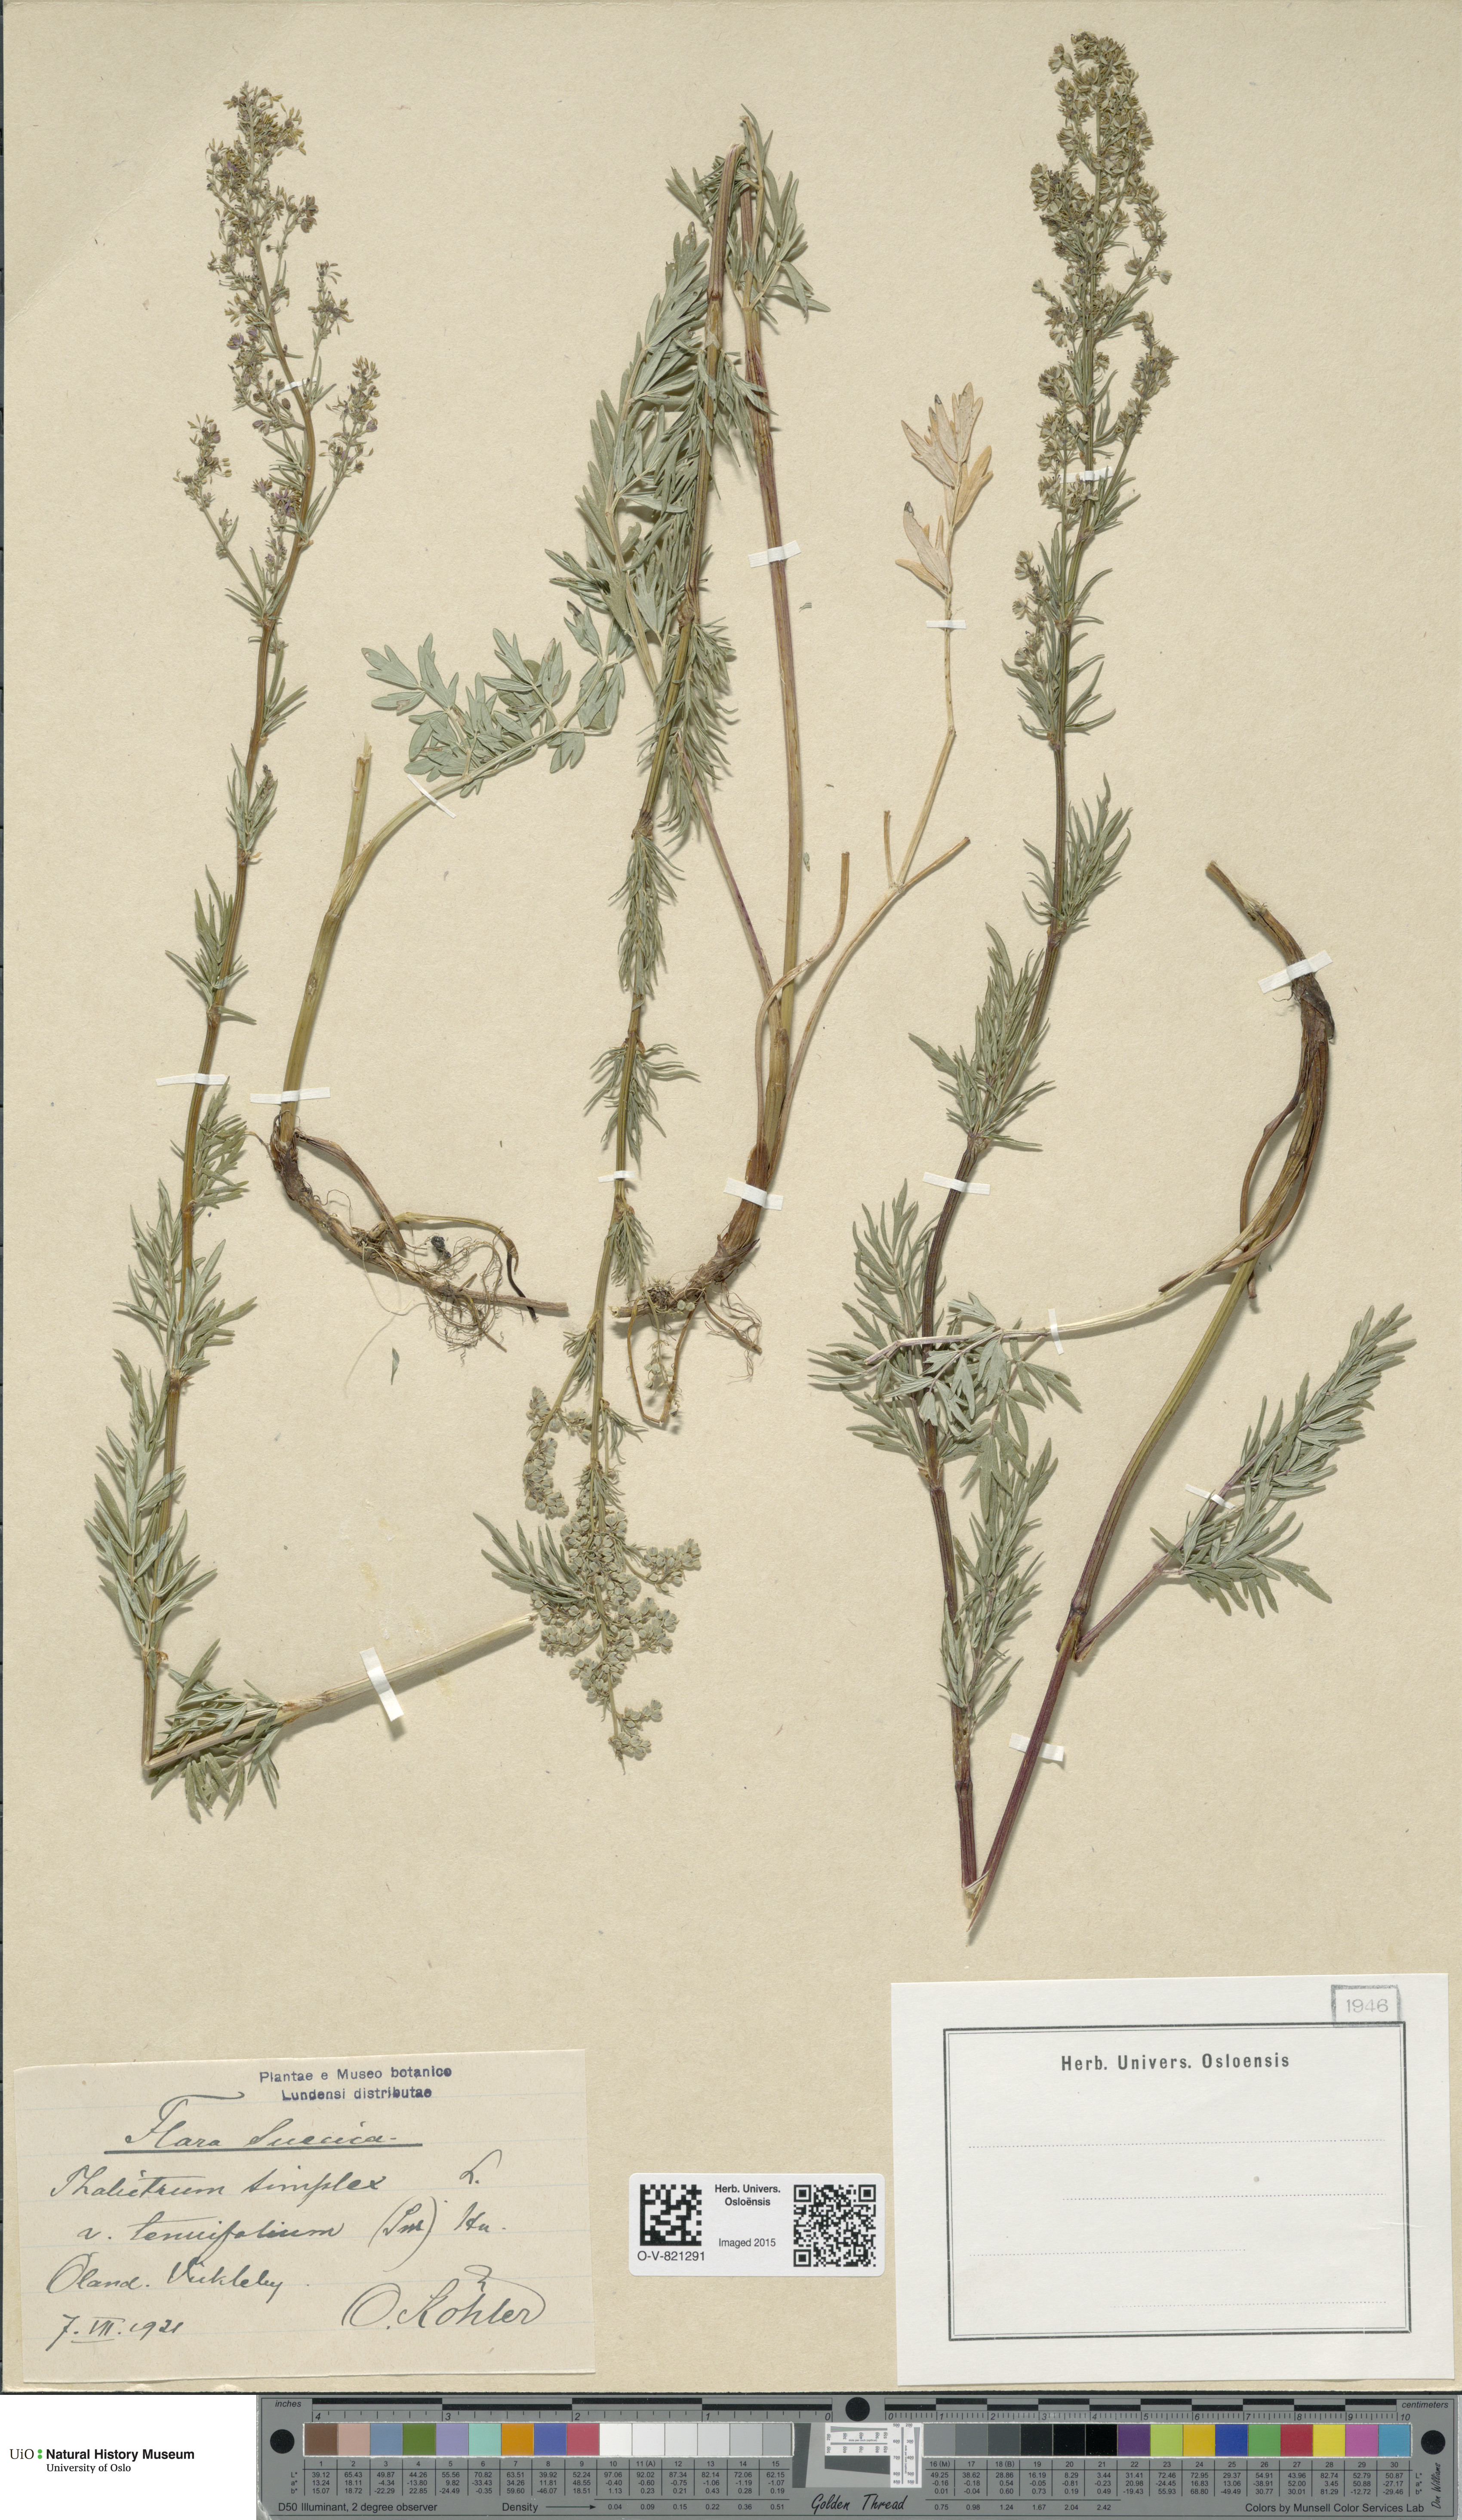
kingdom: Plantae
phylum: Tracheophyta
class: Magnoliopsida
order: Ranunculales
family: Ranunculaceae
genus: Thalictrum
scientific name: Thalictrum simplex
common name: Small meadow-rue
